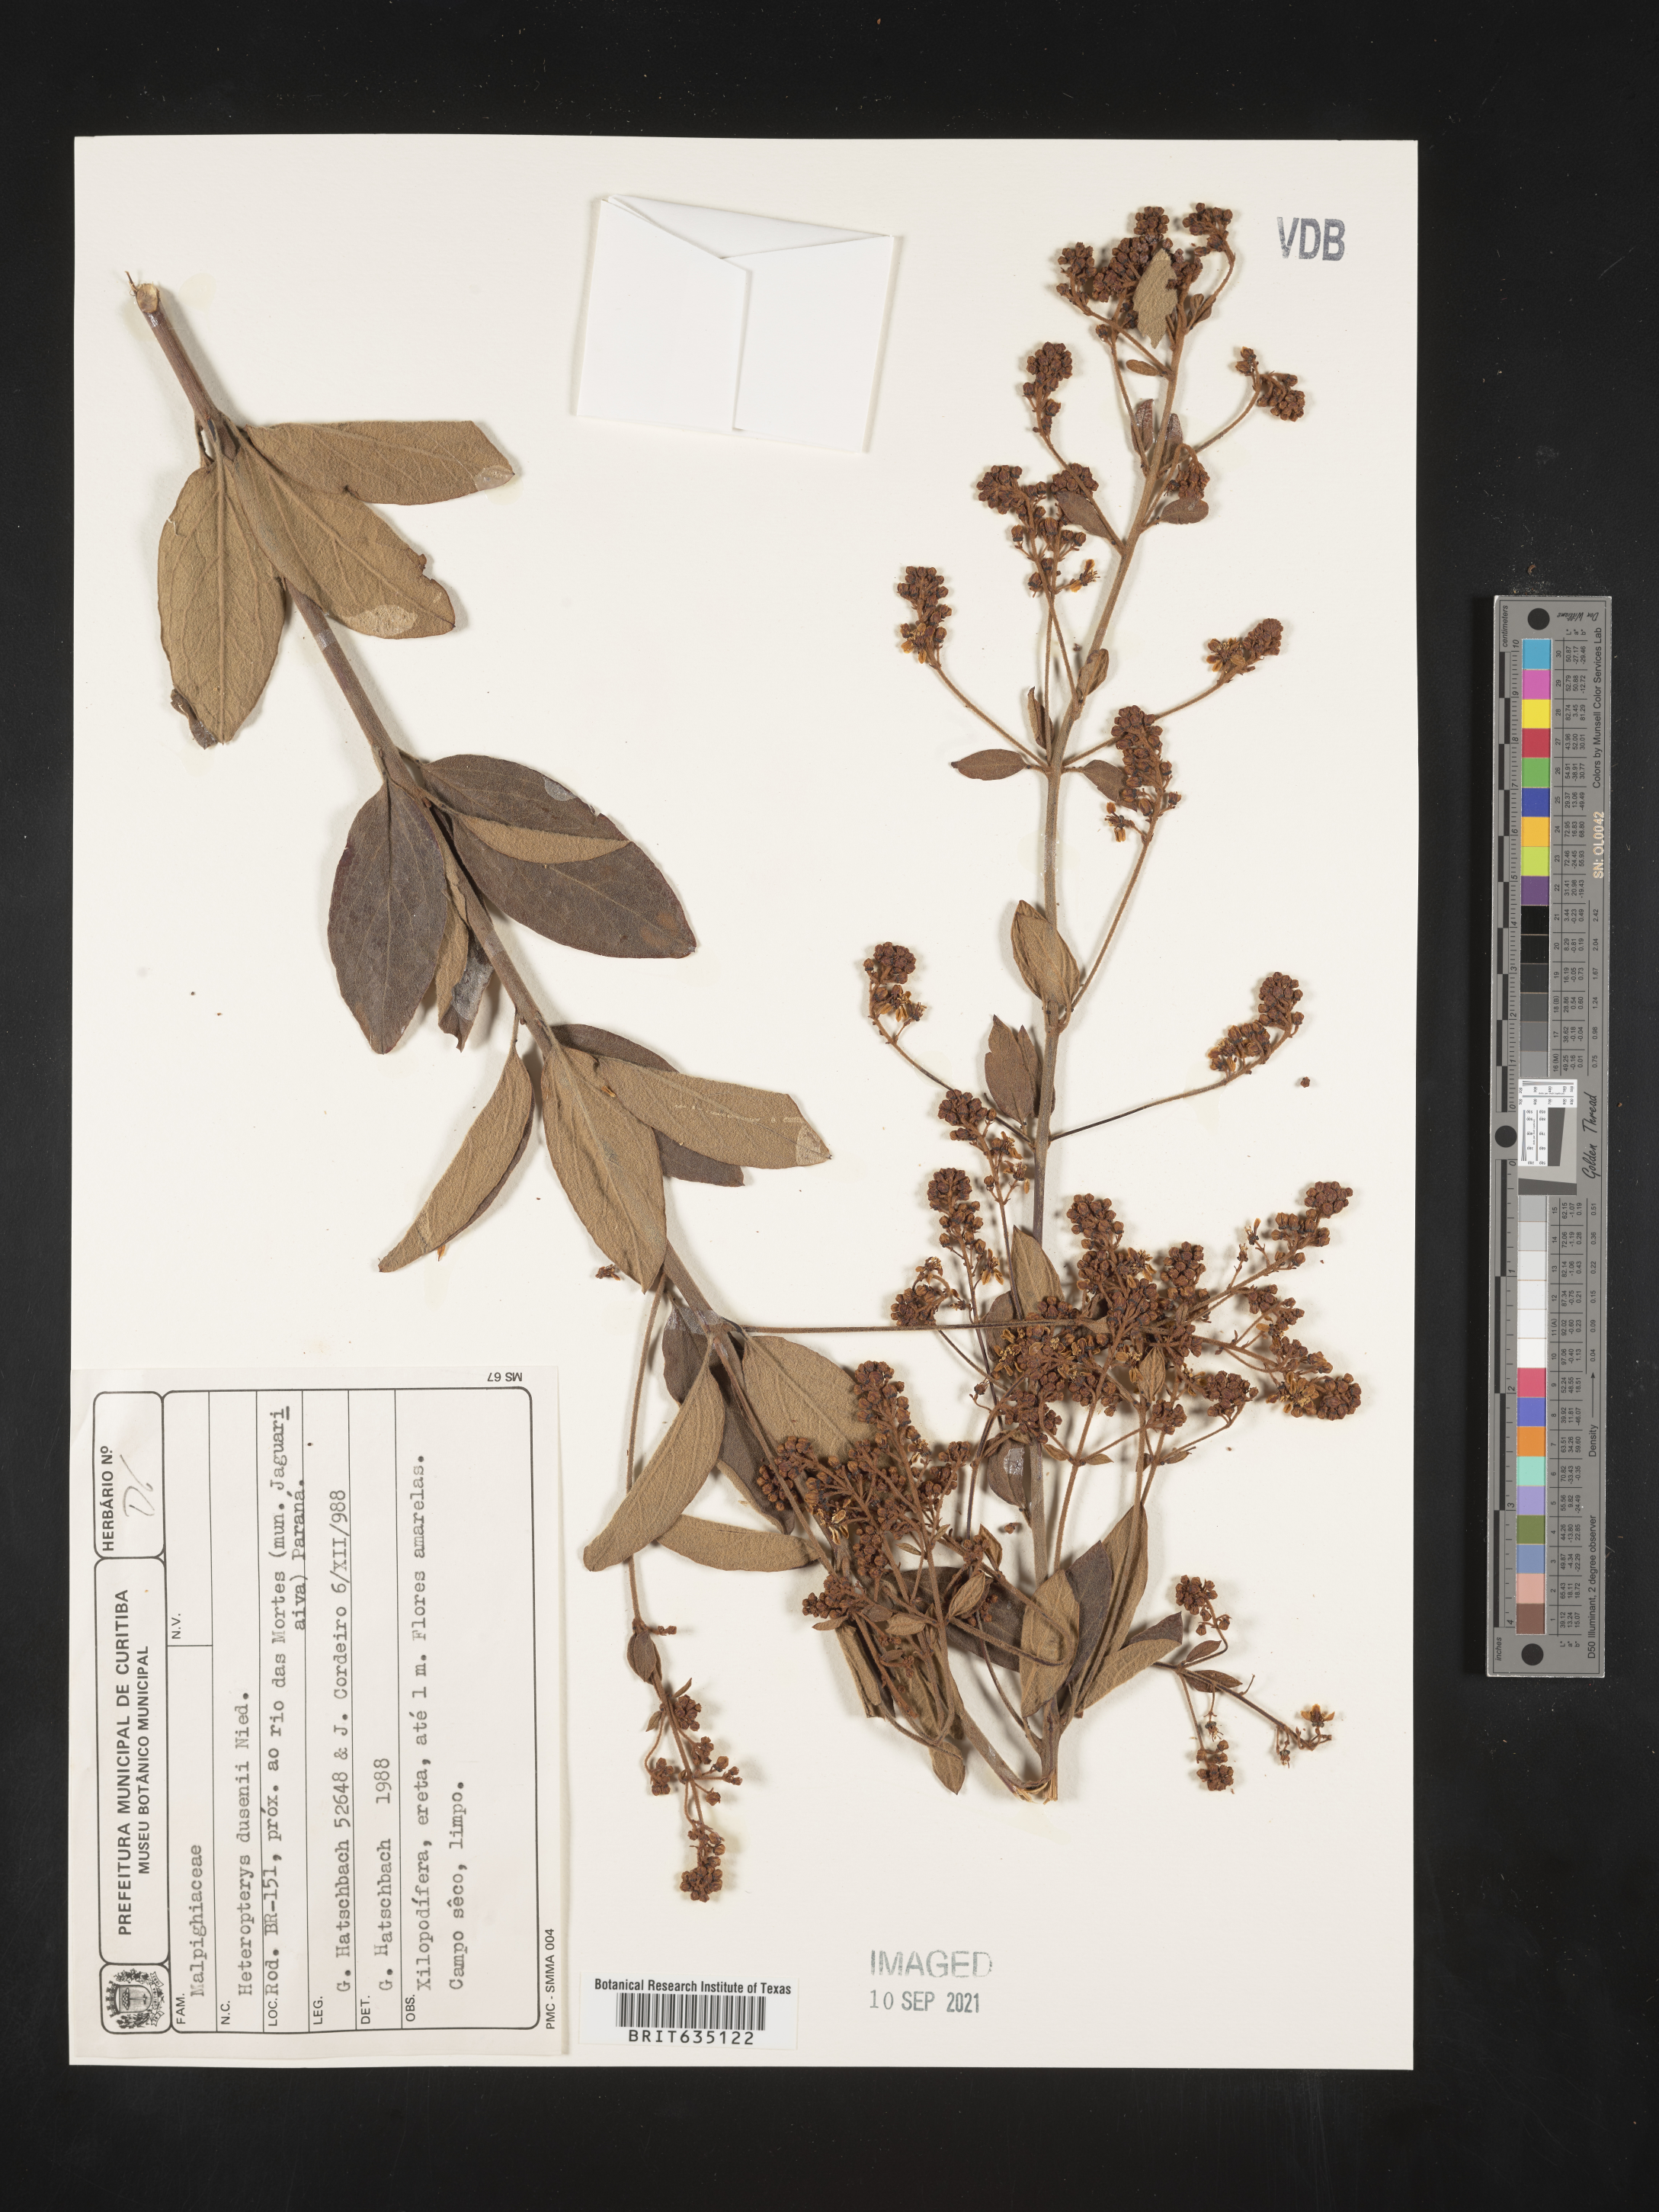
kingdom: Plantae
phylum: Tracheophyta
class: Polypodiopsida
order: Polypodiales
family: Pteridaceae
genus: Heteropteris
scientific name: Heteropteris
